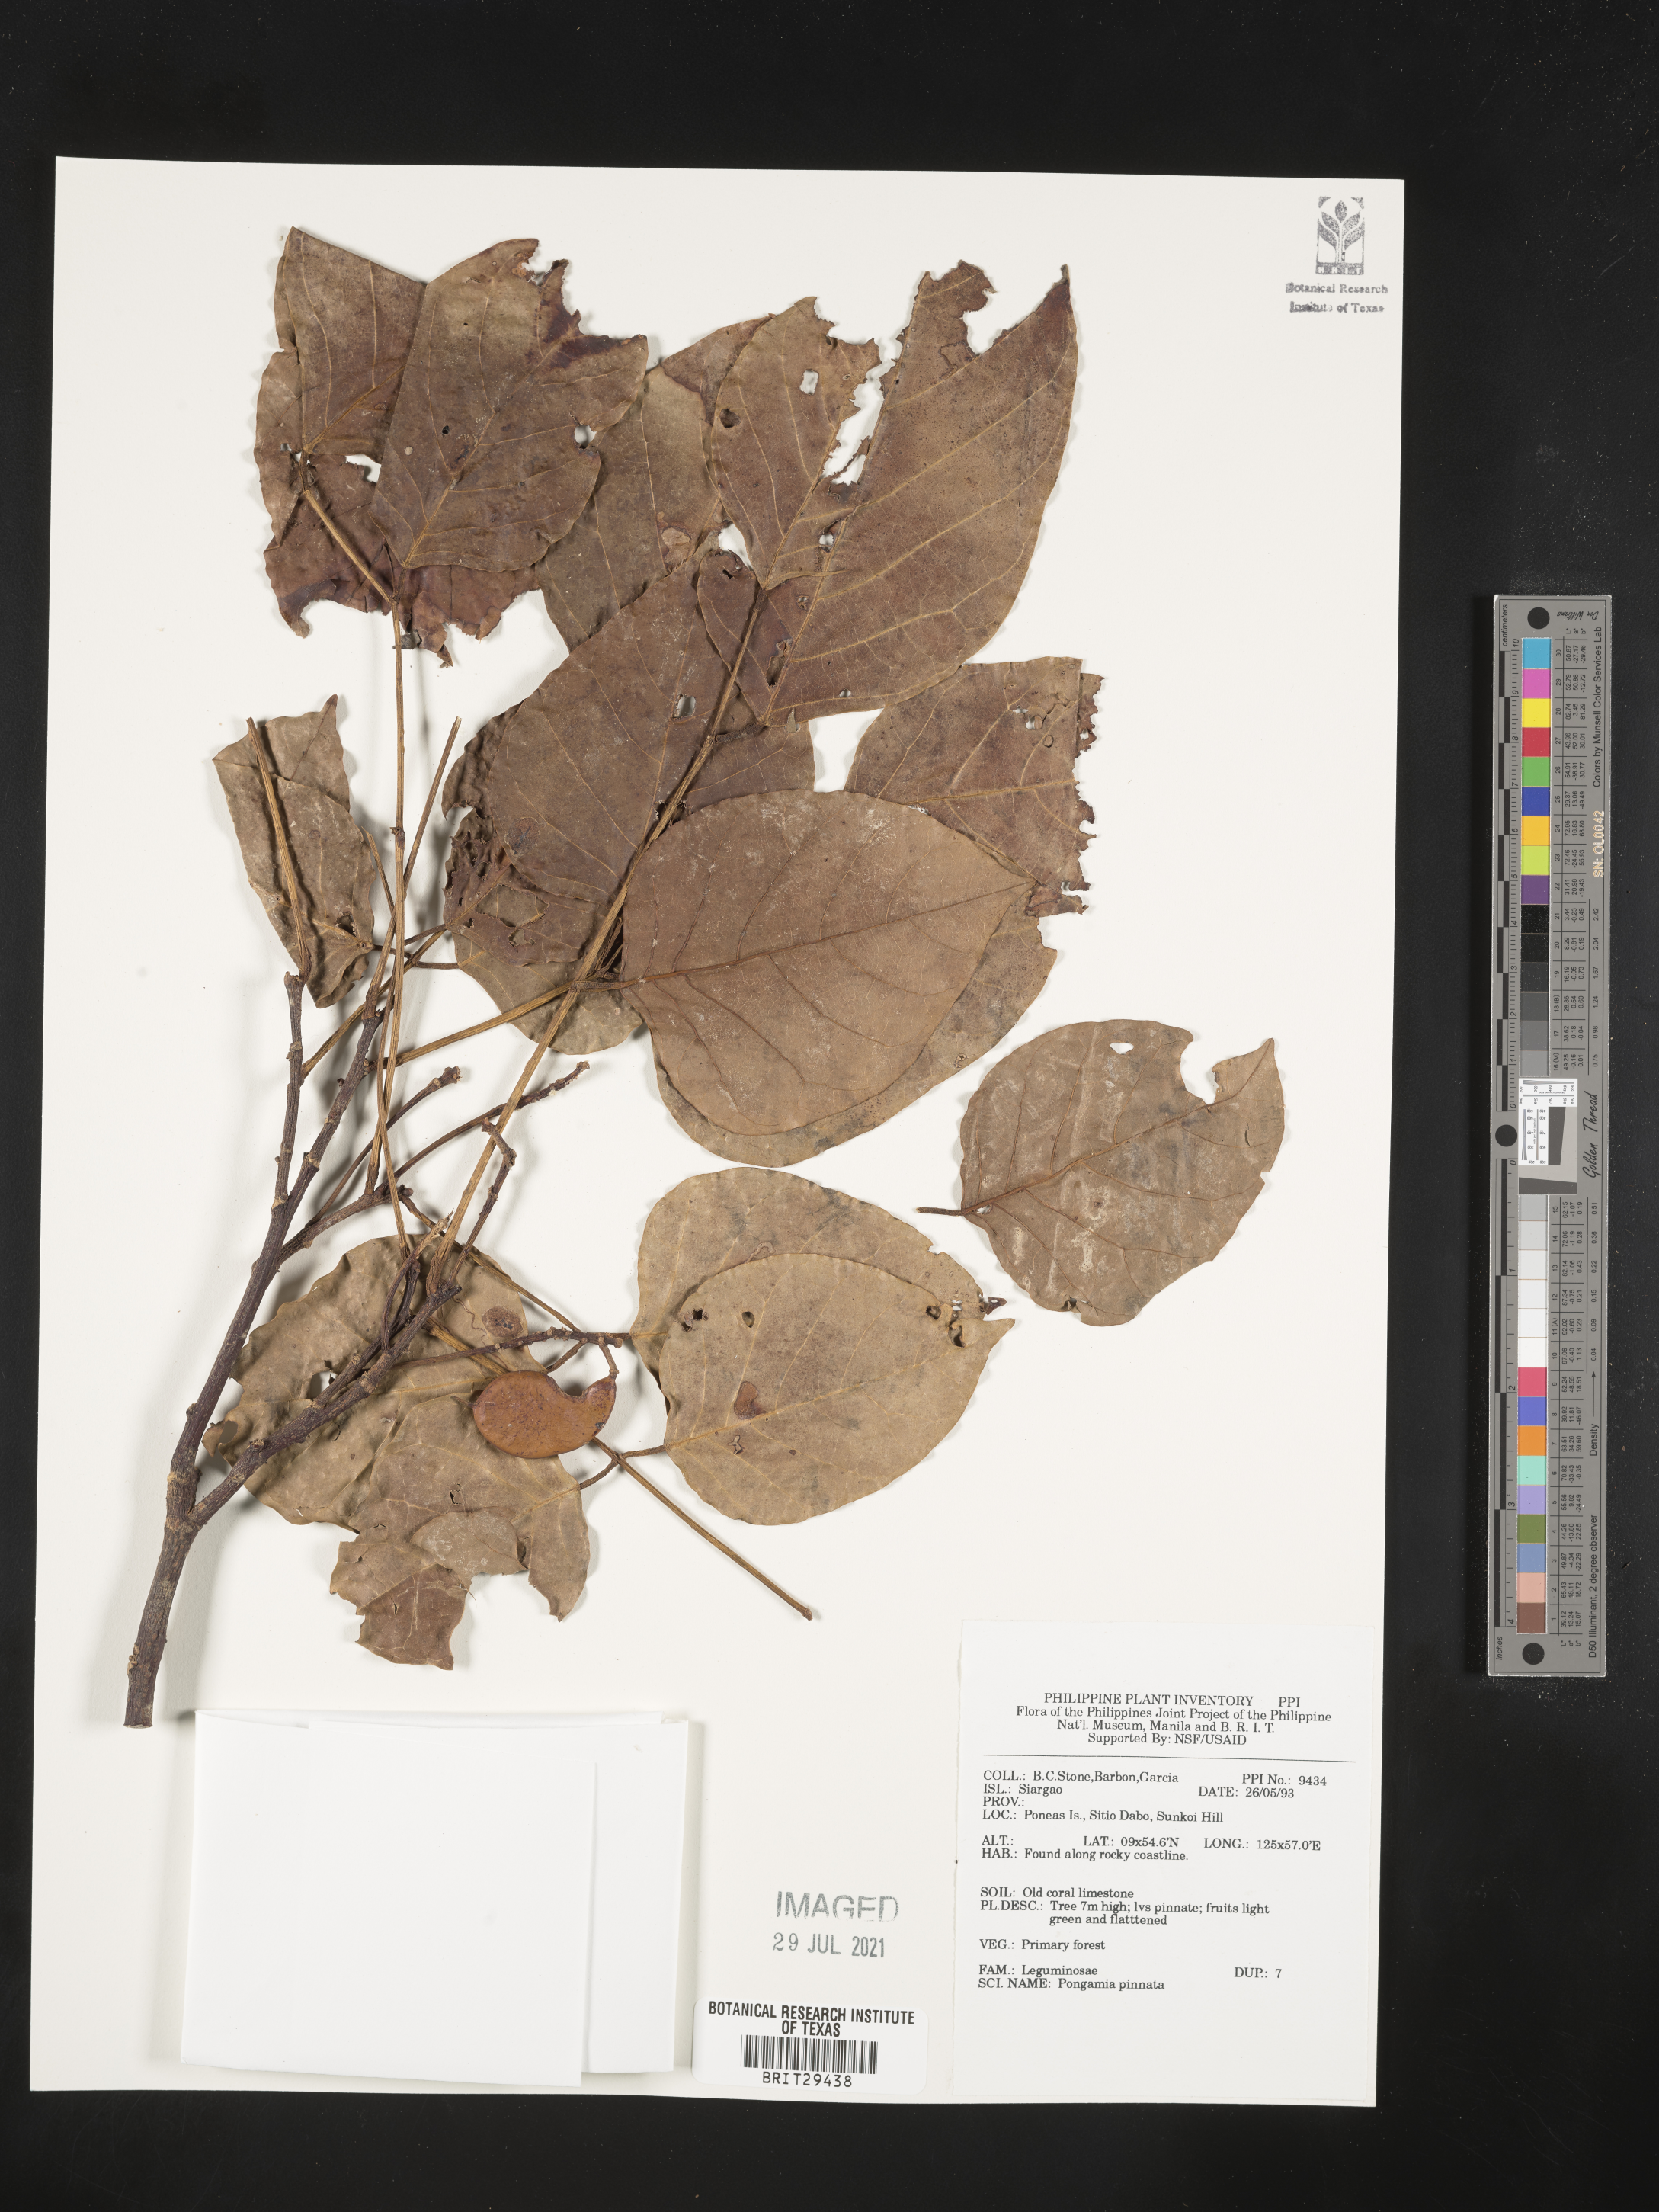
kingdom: Plantae
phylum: Tracheophyta
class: Magnoliopsida
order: Fabales
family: Fabaceae
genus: Pongamia
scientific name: Pongamia pinnata
